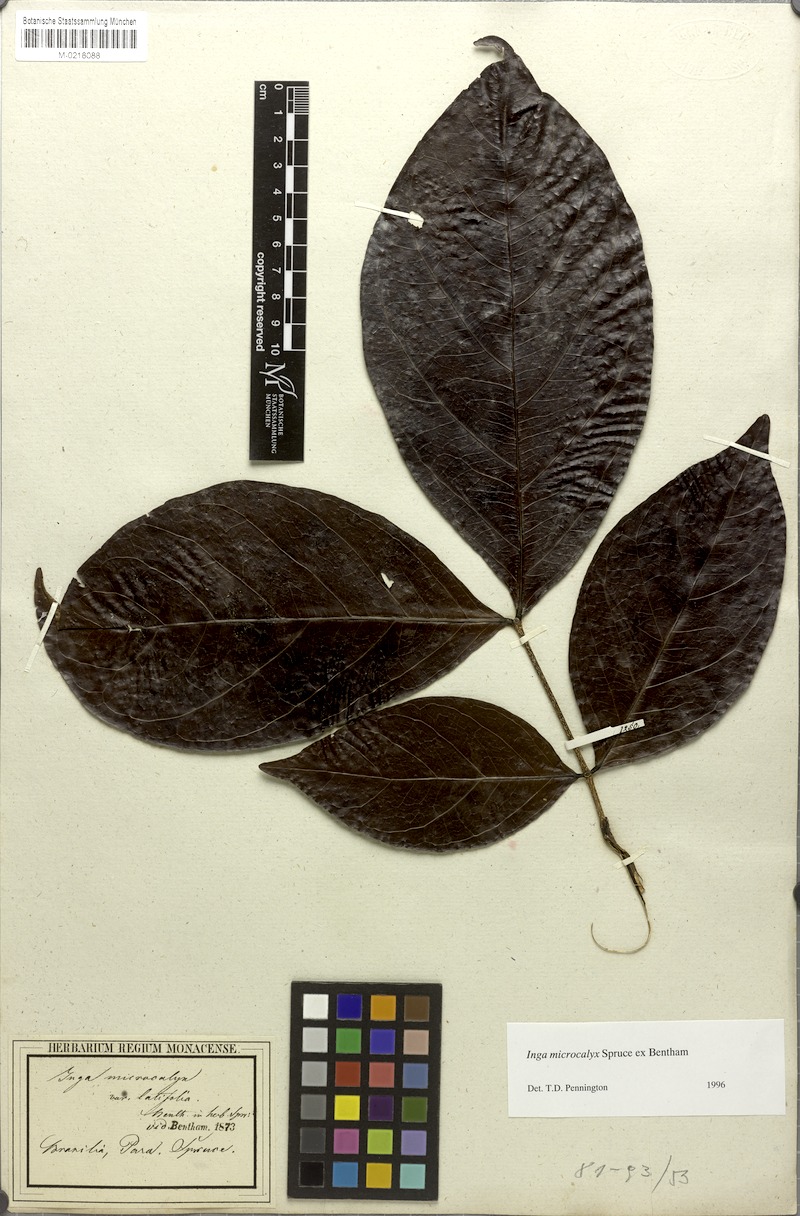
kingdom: Plantae
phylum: Tracheophyta
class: Magnoliopsida
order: Fabales
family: Fabaceae
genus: Inga
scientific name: Inga microcalyx
